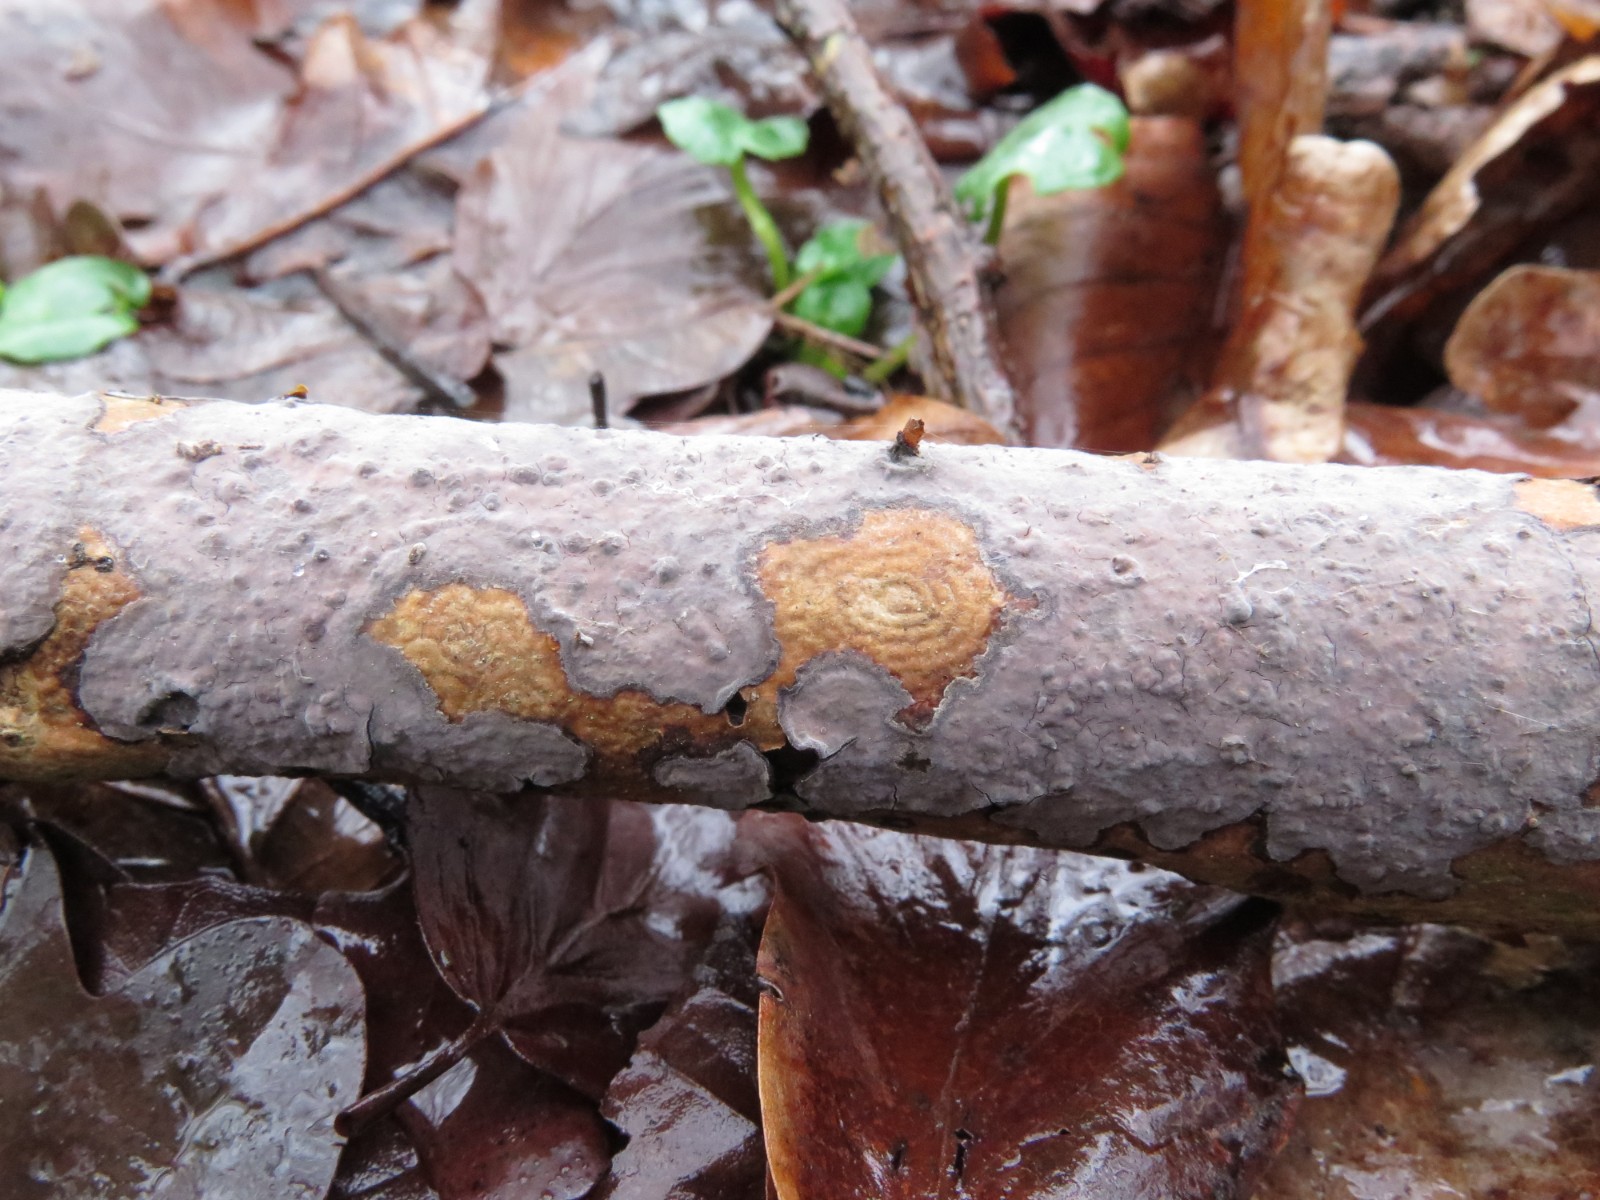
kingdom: Fungi
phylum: Basidiomycota
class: Agaricomycetes
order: Russulales
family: Peniophoraceae
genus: Peniophora
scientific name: Peniophora limitata
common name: mørkrandet voksskind
